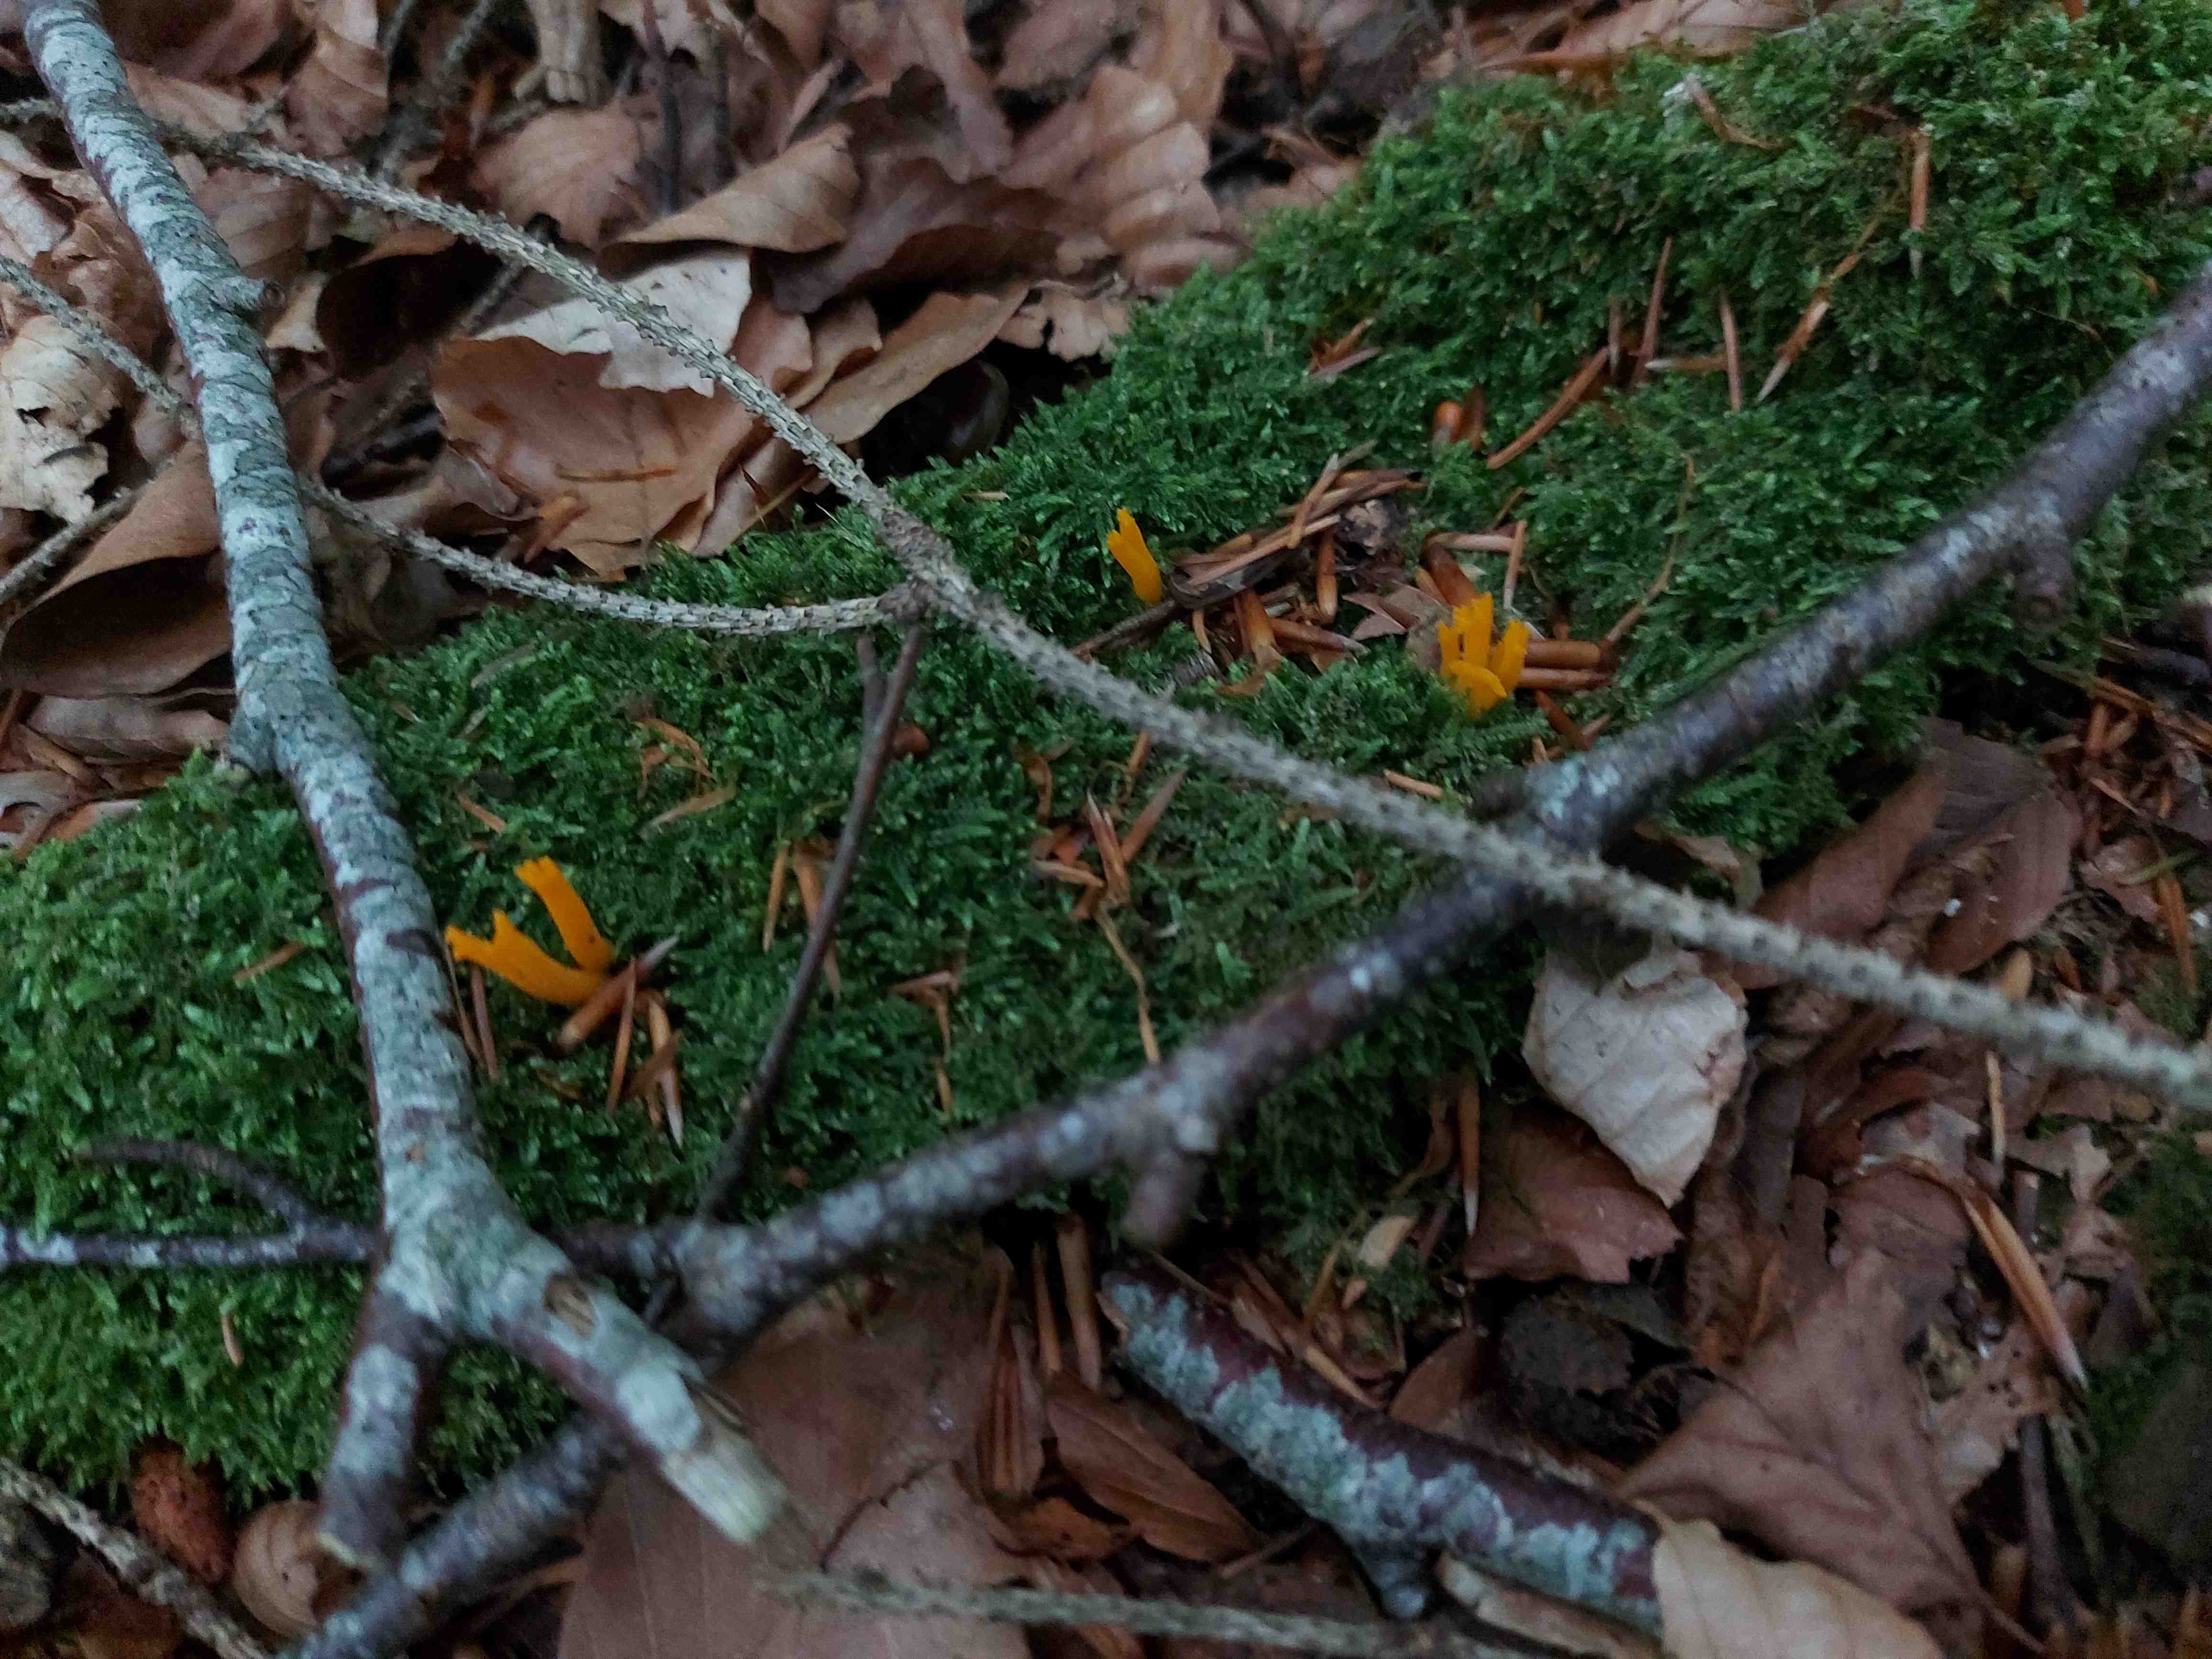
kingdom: Fungi
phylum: Basidiomycota
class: Dacrymycetes
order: Dacrymycetales
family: Dacrymycetaceae
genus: Calocera
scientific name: Calocera viscosa
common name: almindelig guldgaffel
